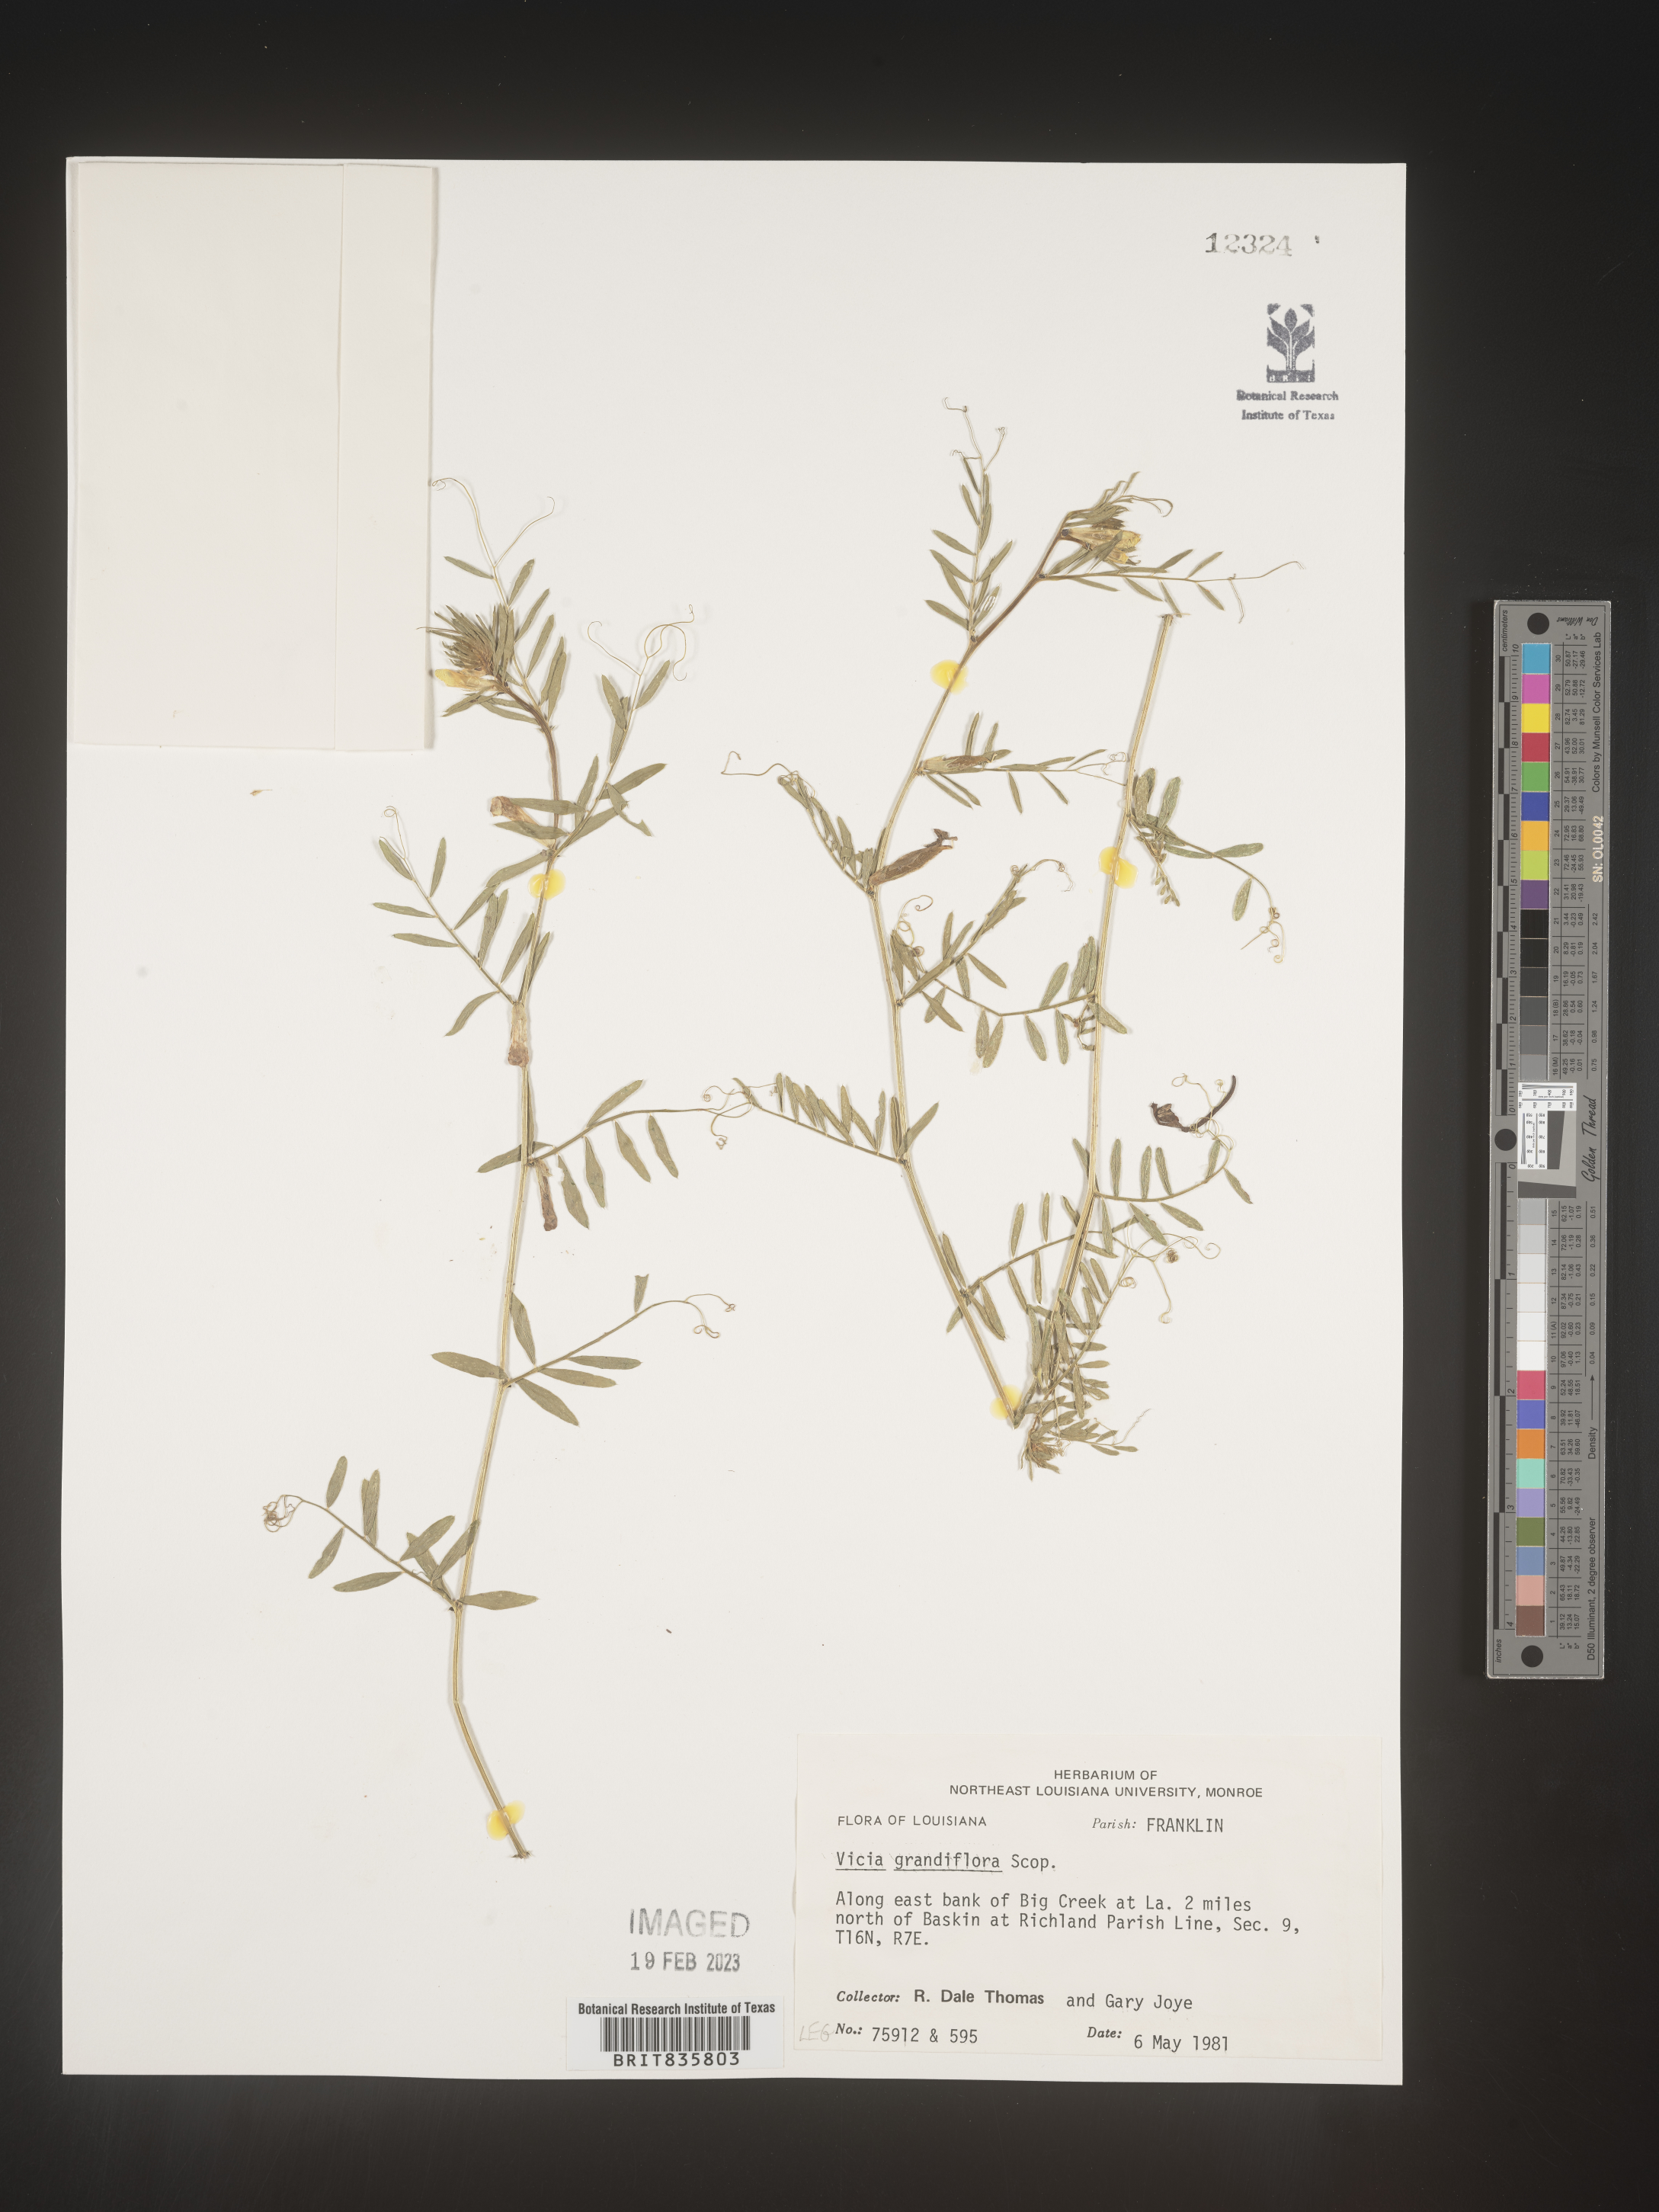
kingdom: Plantae
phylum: Tracheophyta
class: Magnoliopsida
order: Fabales
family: Fabaceae
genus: Vicia
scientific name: Vicia grandiflora
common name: Large yellow vetch
